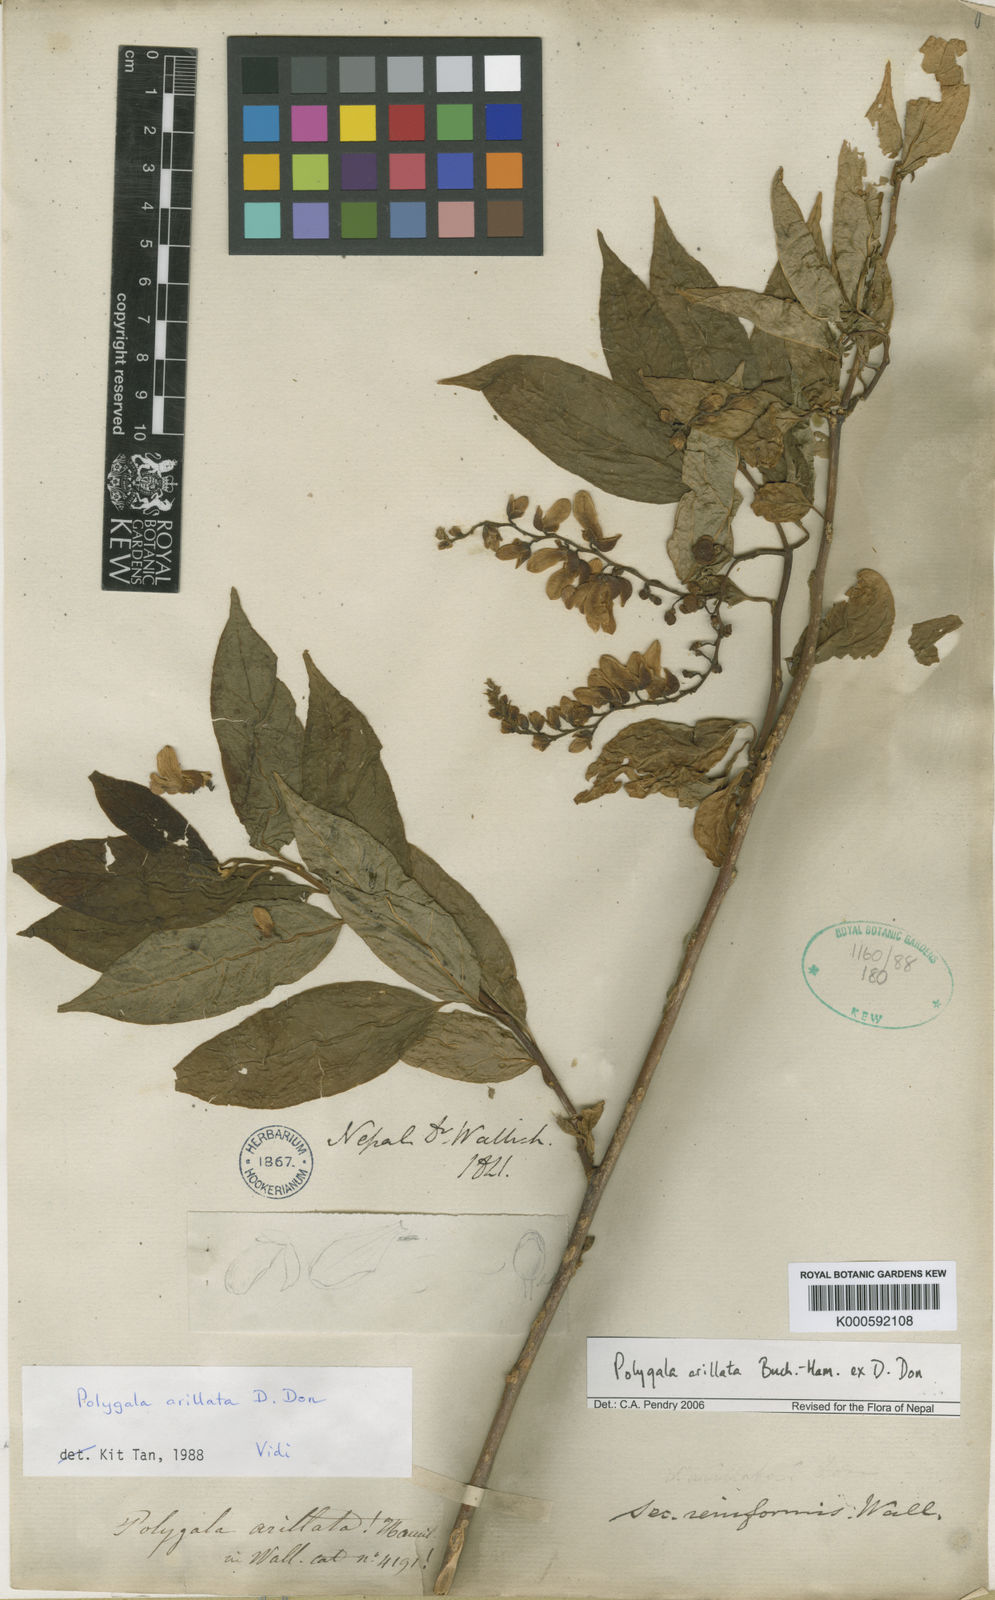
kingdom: Plantae
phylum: Tracheophyta
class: Magnoliopsida
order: Fabales
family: Polygalaceae
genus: Polygala
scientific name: Polygala arillata
